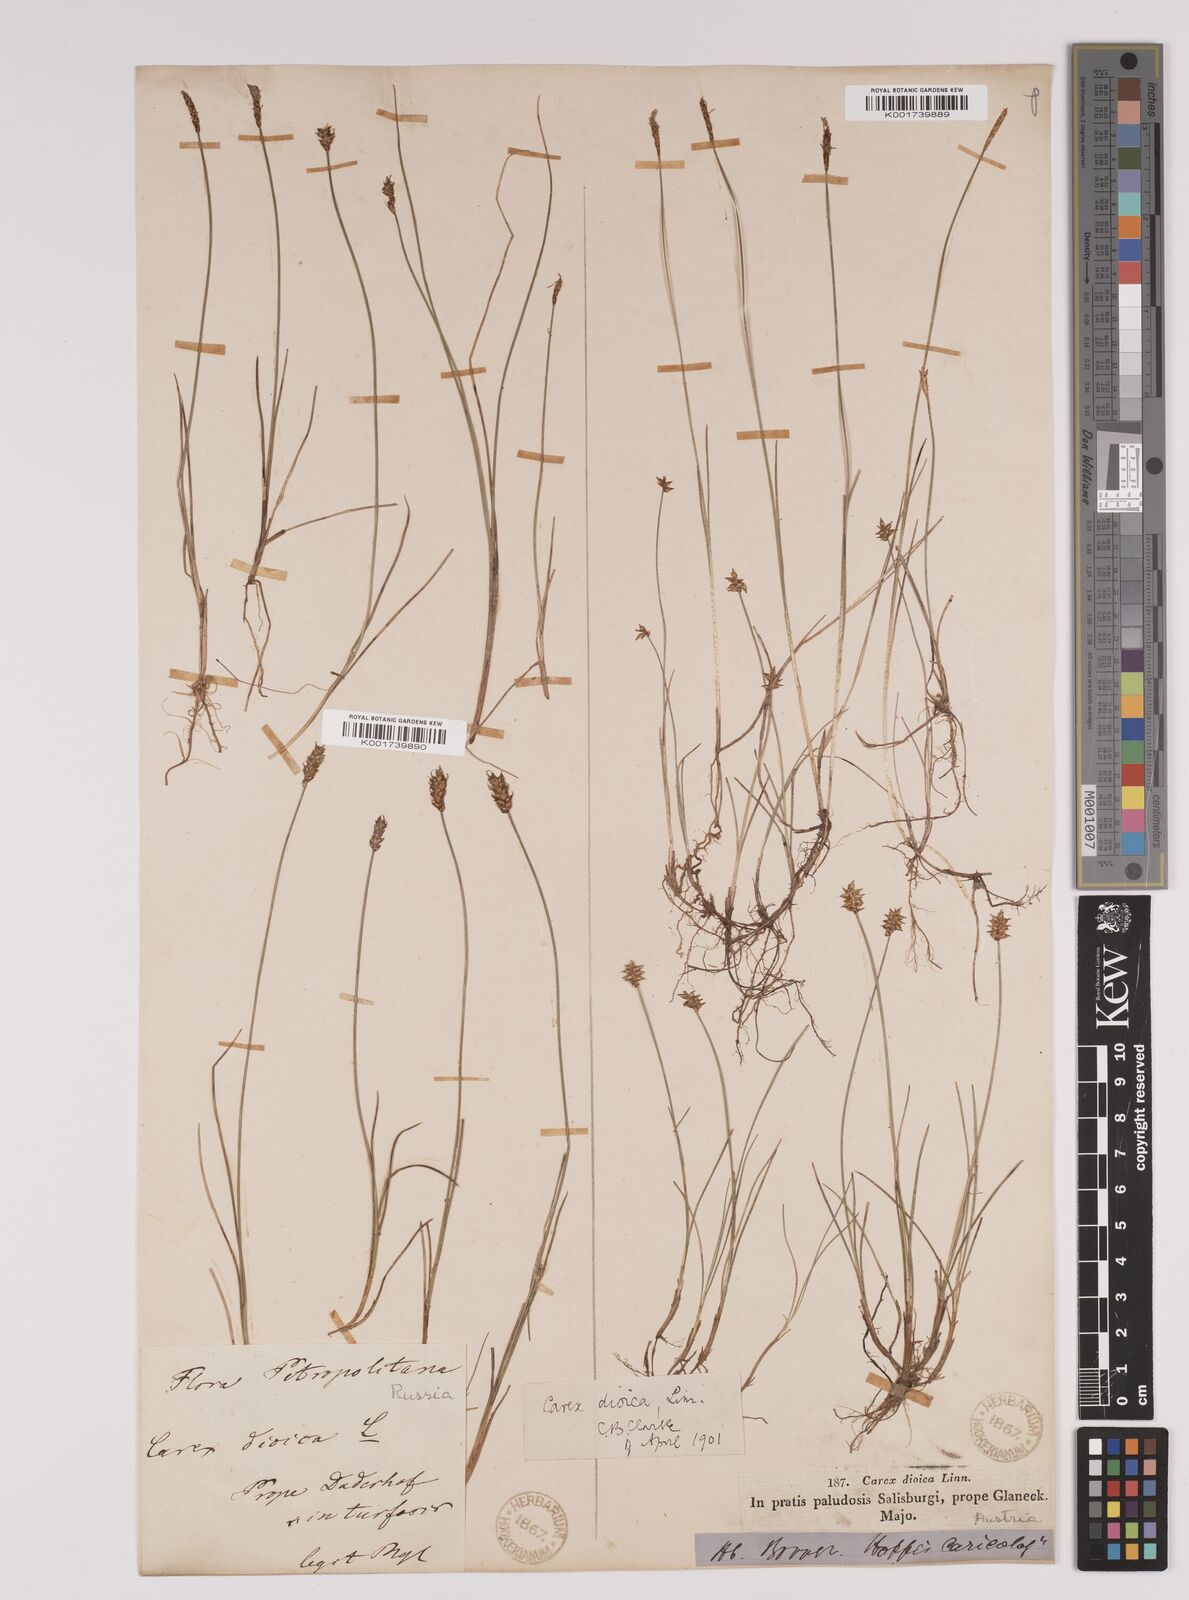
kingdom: Plantae
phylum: Tracheophyta
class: Liliopsida
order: Poales
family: Cyperaceae
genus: Carex
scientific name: Carex dioica
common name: Dioecious sedge
